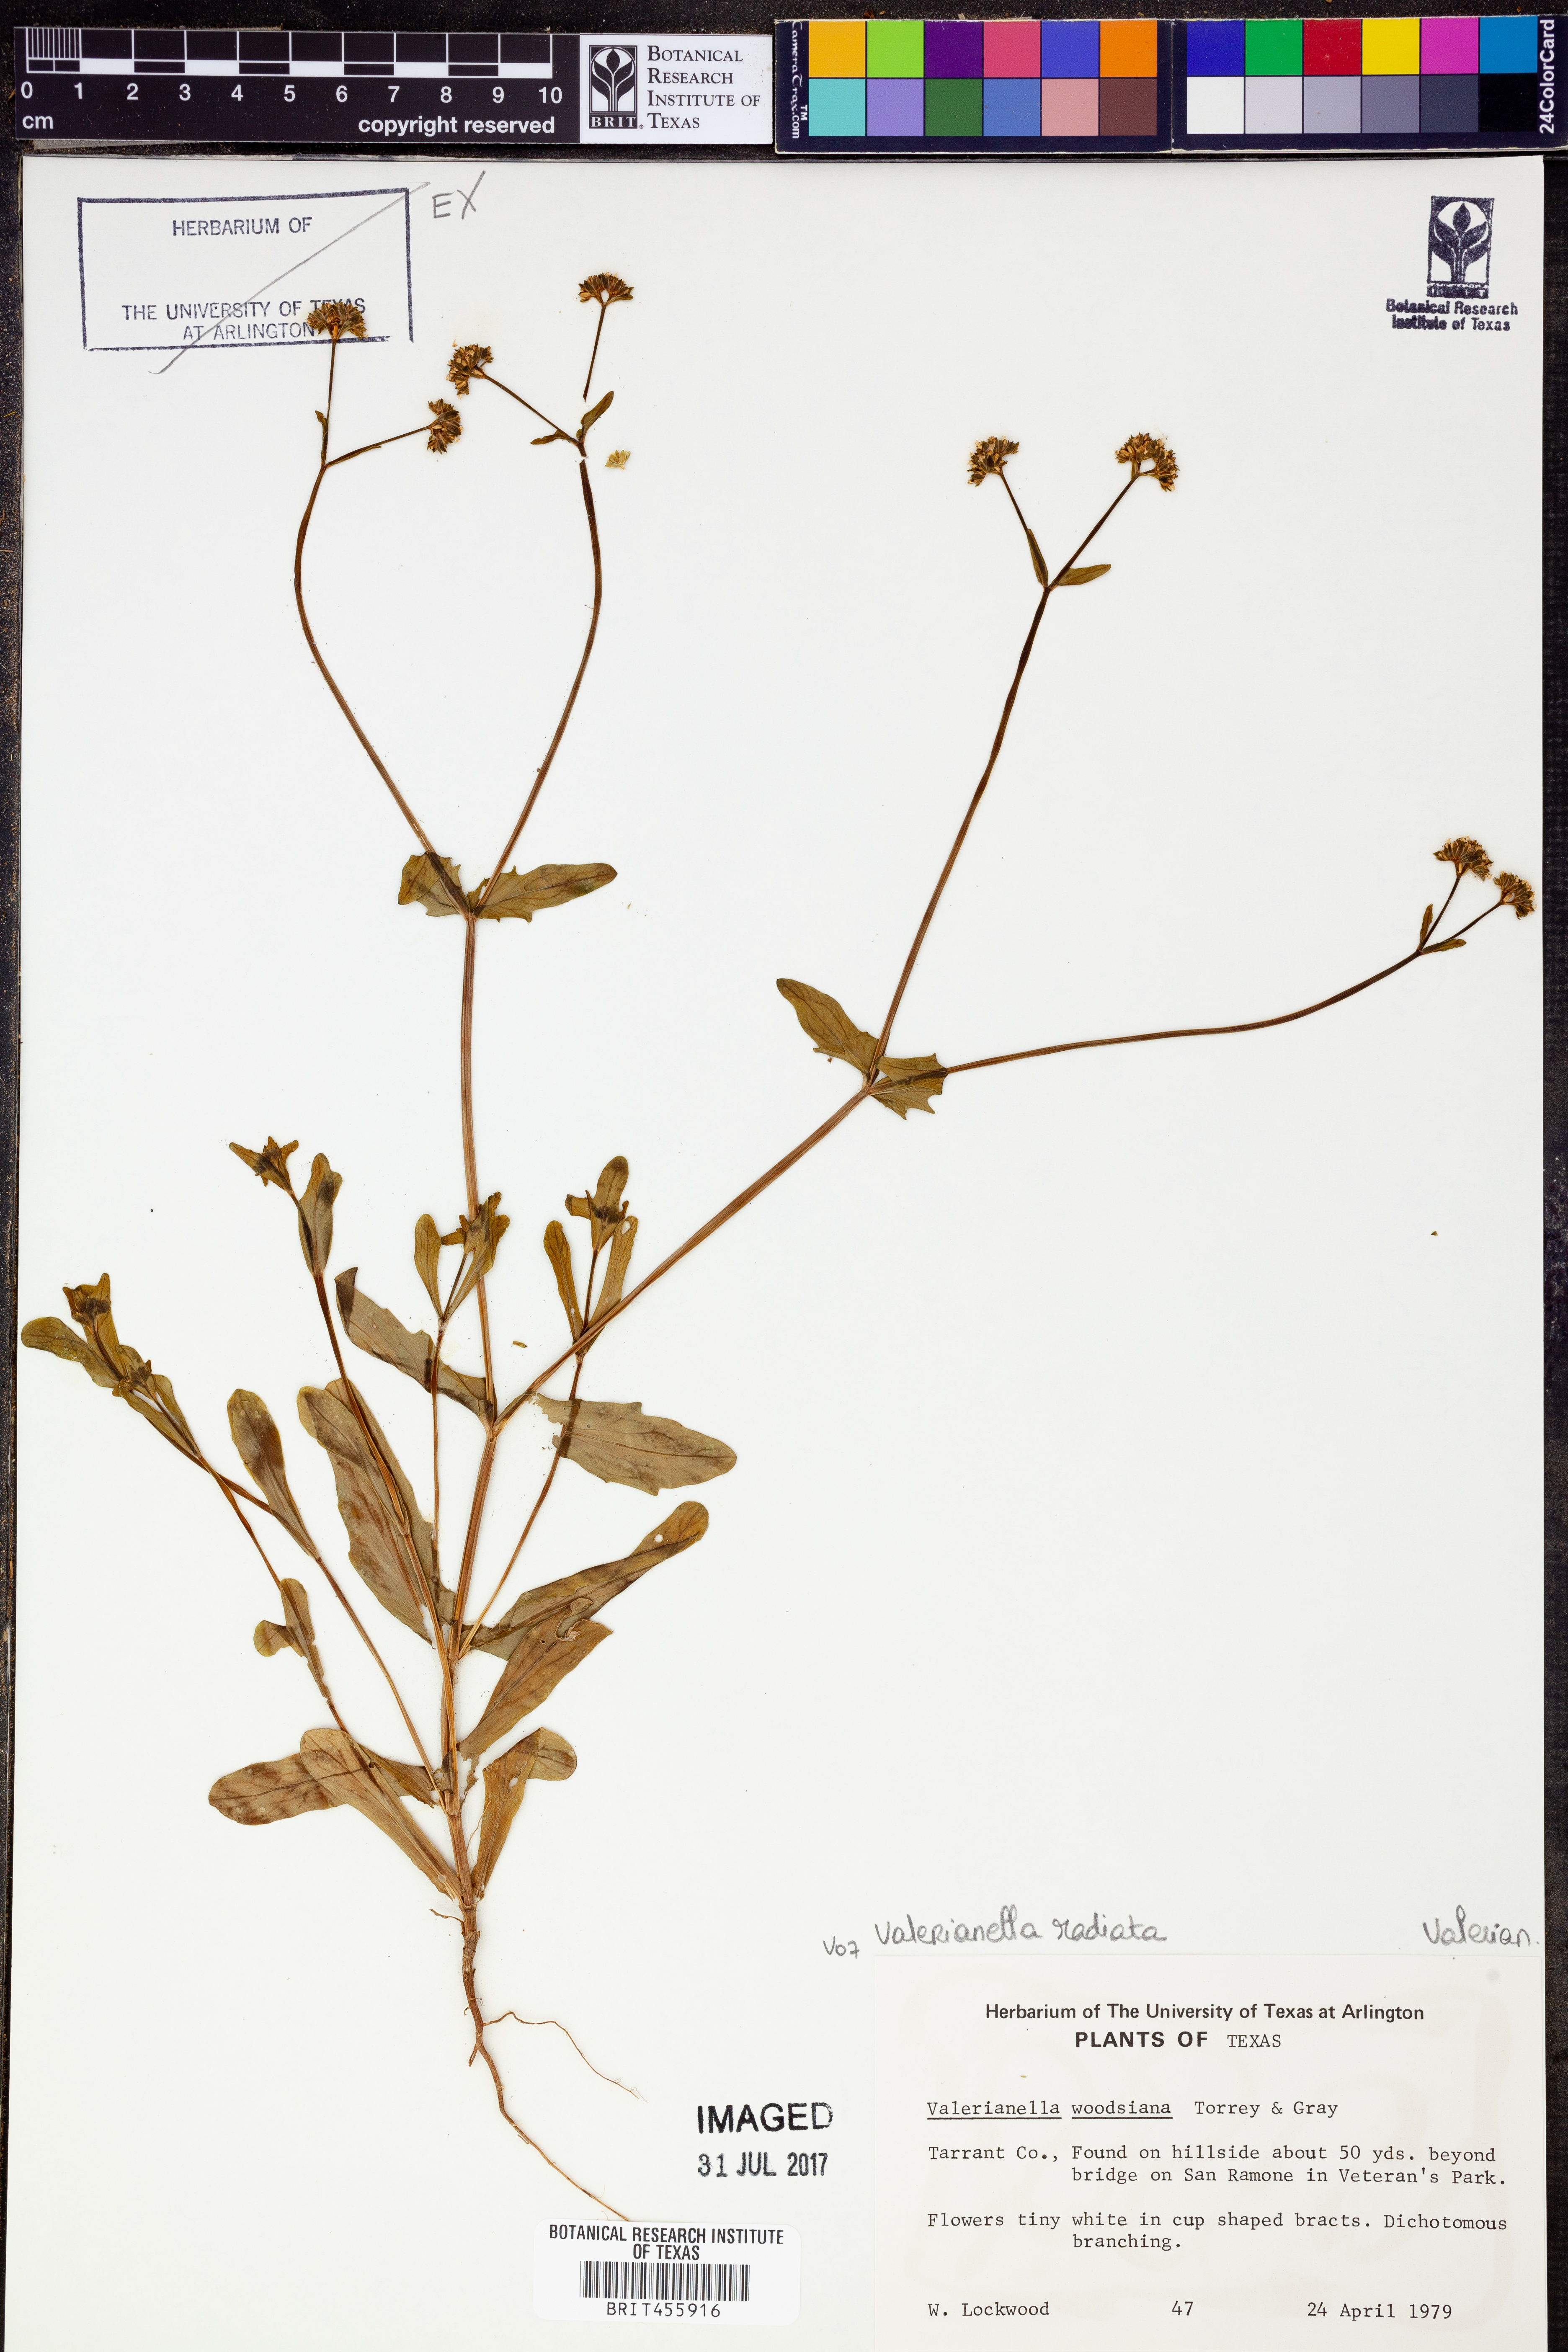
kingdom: Plantae
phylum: Tracheophyta
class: Magnoliopsida
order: Dipsacales
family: Caprifoliaceae
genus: Valerianella
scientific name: Valerianella radiata
